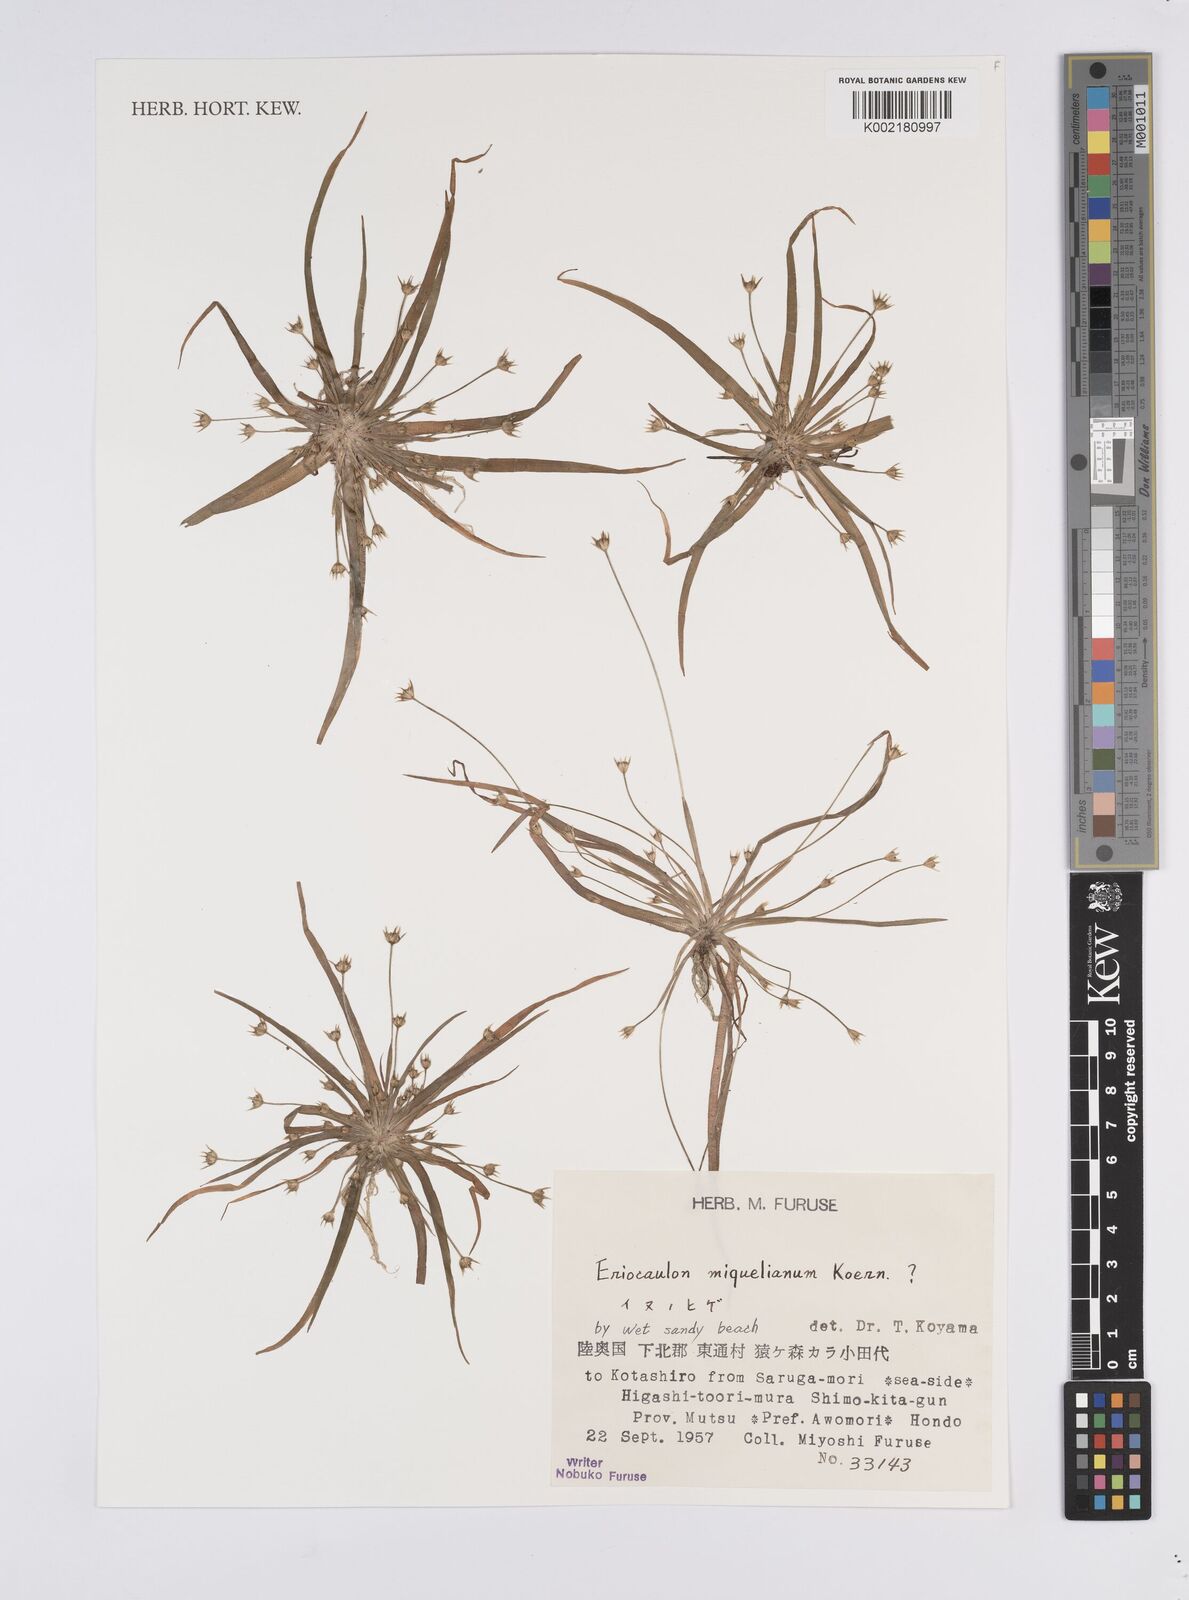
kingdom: Plantae
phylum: Tracheophyta
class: Liliopsida
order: Poales
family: Eriocaulaceae
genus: Eriocaulon
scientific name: Eriocaulon miquelianum
